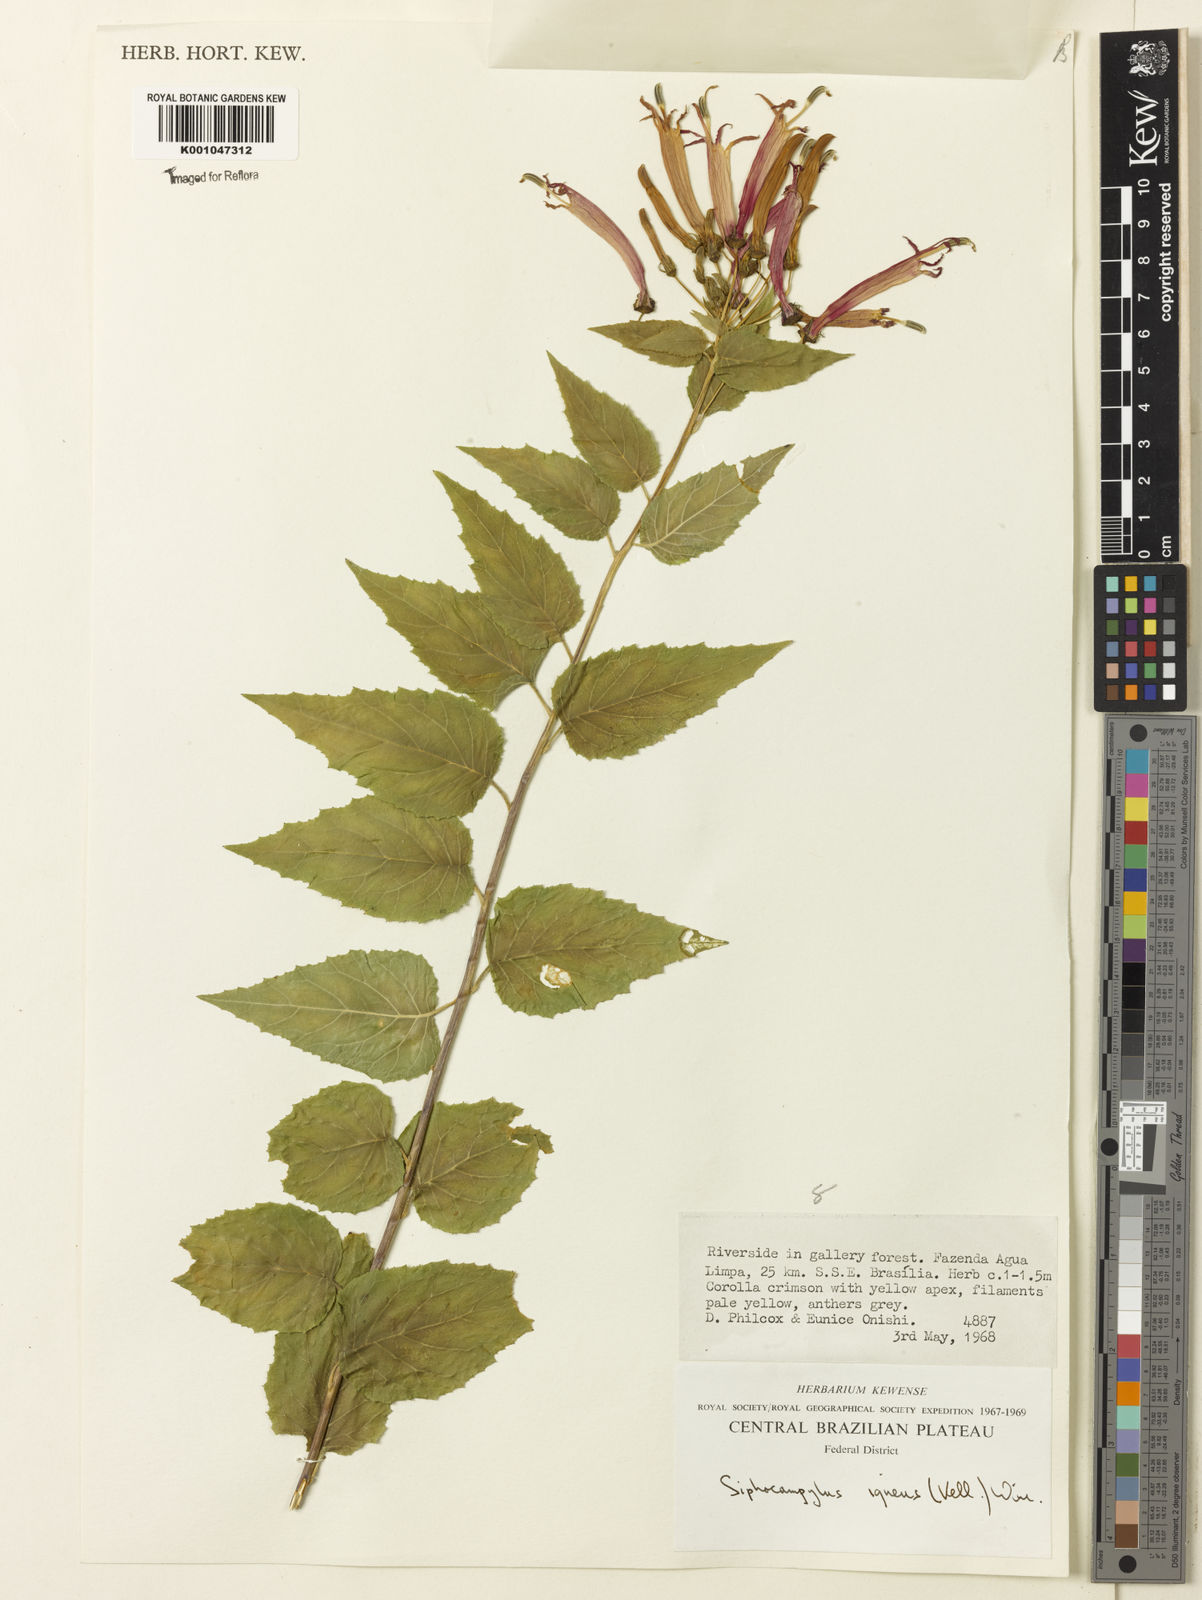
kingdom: Plantae
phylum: Tracheophyta
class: Magnoliopsida
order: Asterales
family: Campanulaceae
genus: Siphocampylus
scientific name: Siphocampylus corymbifer
